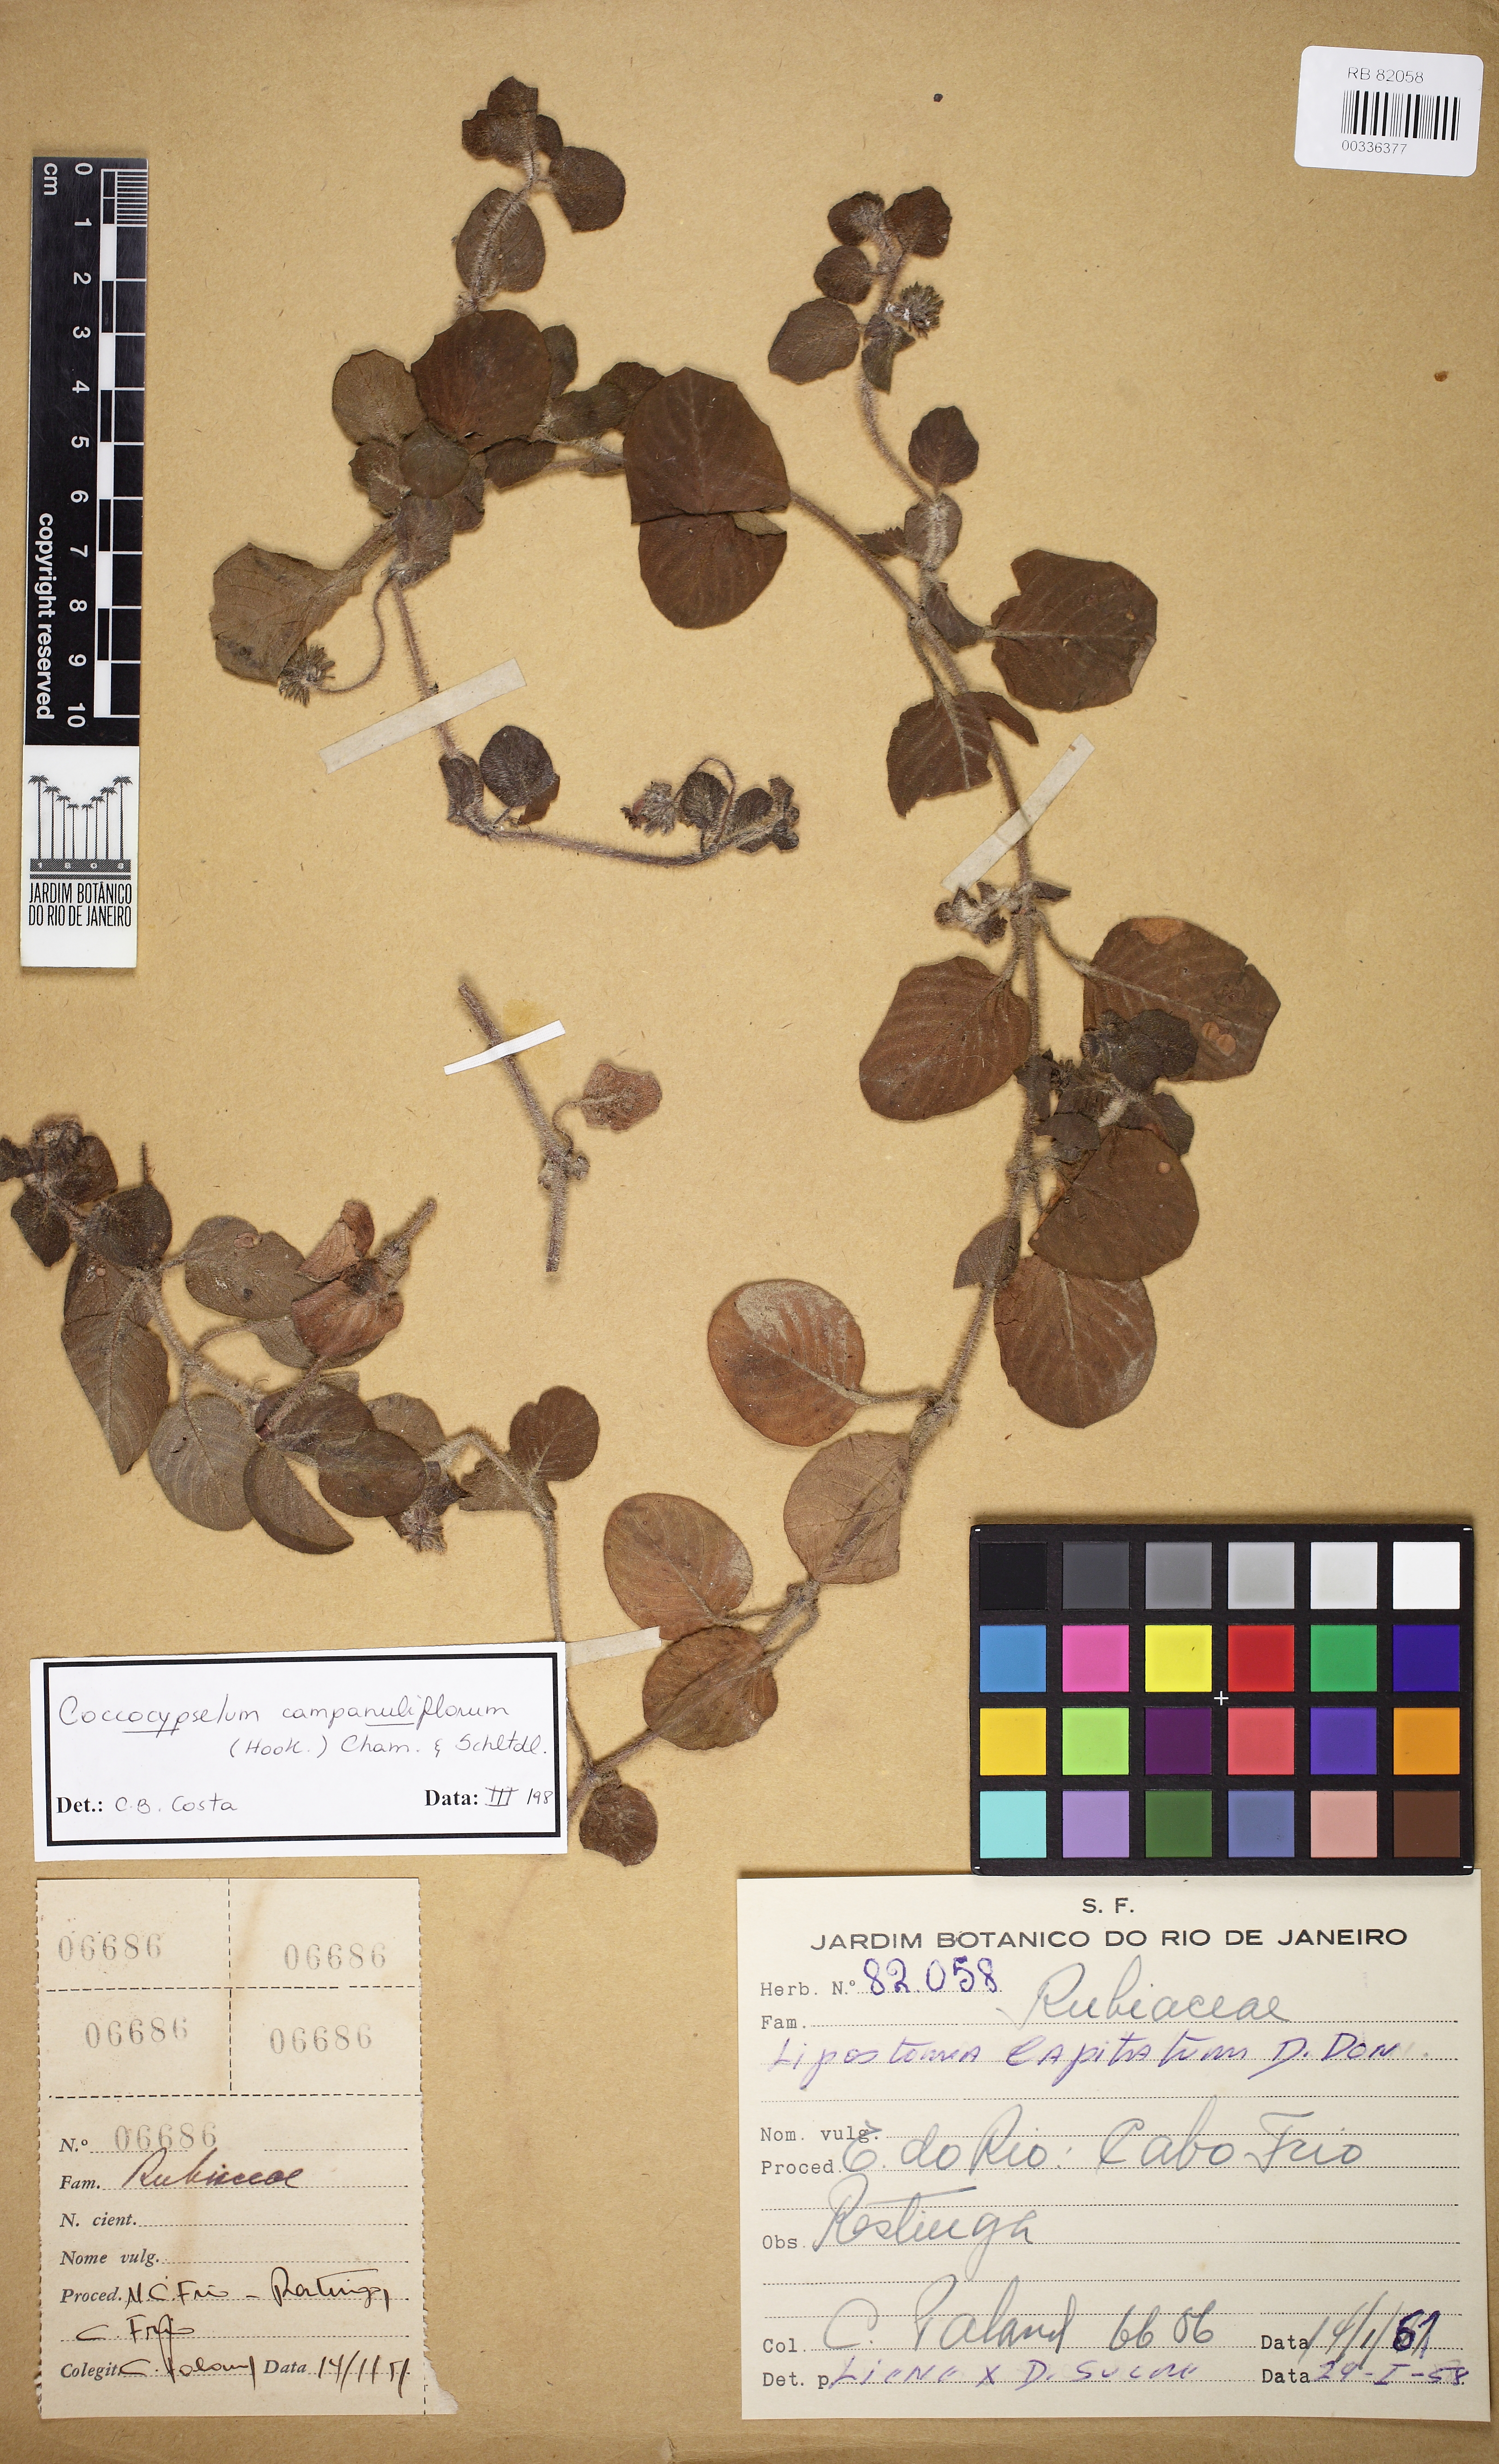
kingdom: Plantae
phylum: Tracheophyta
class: Magnoliopsida
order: Gentianales
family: Rubiaceae
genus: Coccocypselum
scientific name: Coccocypselum capitatum
